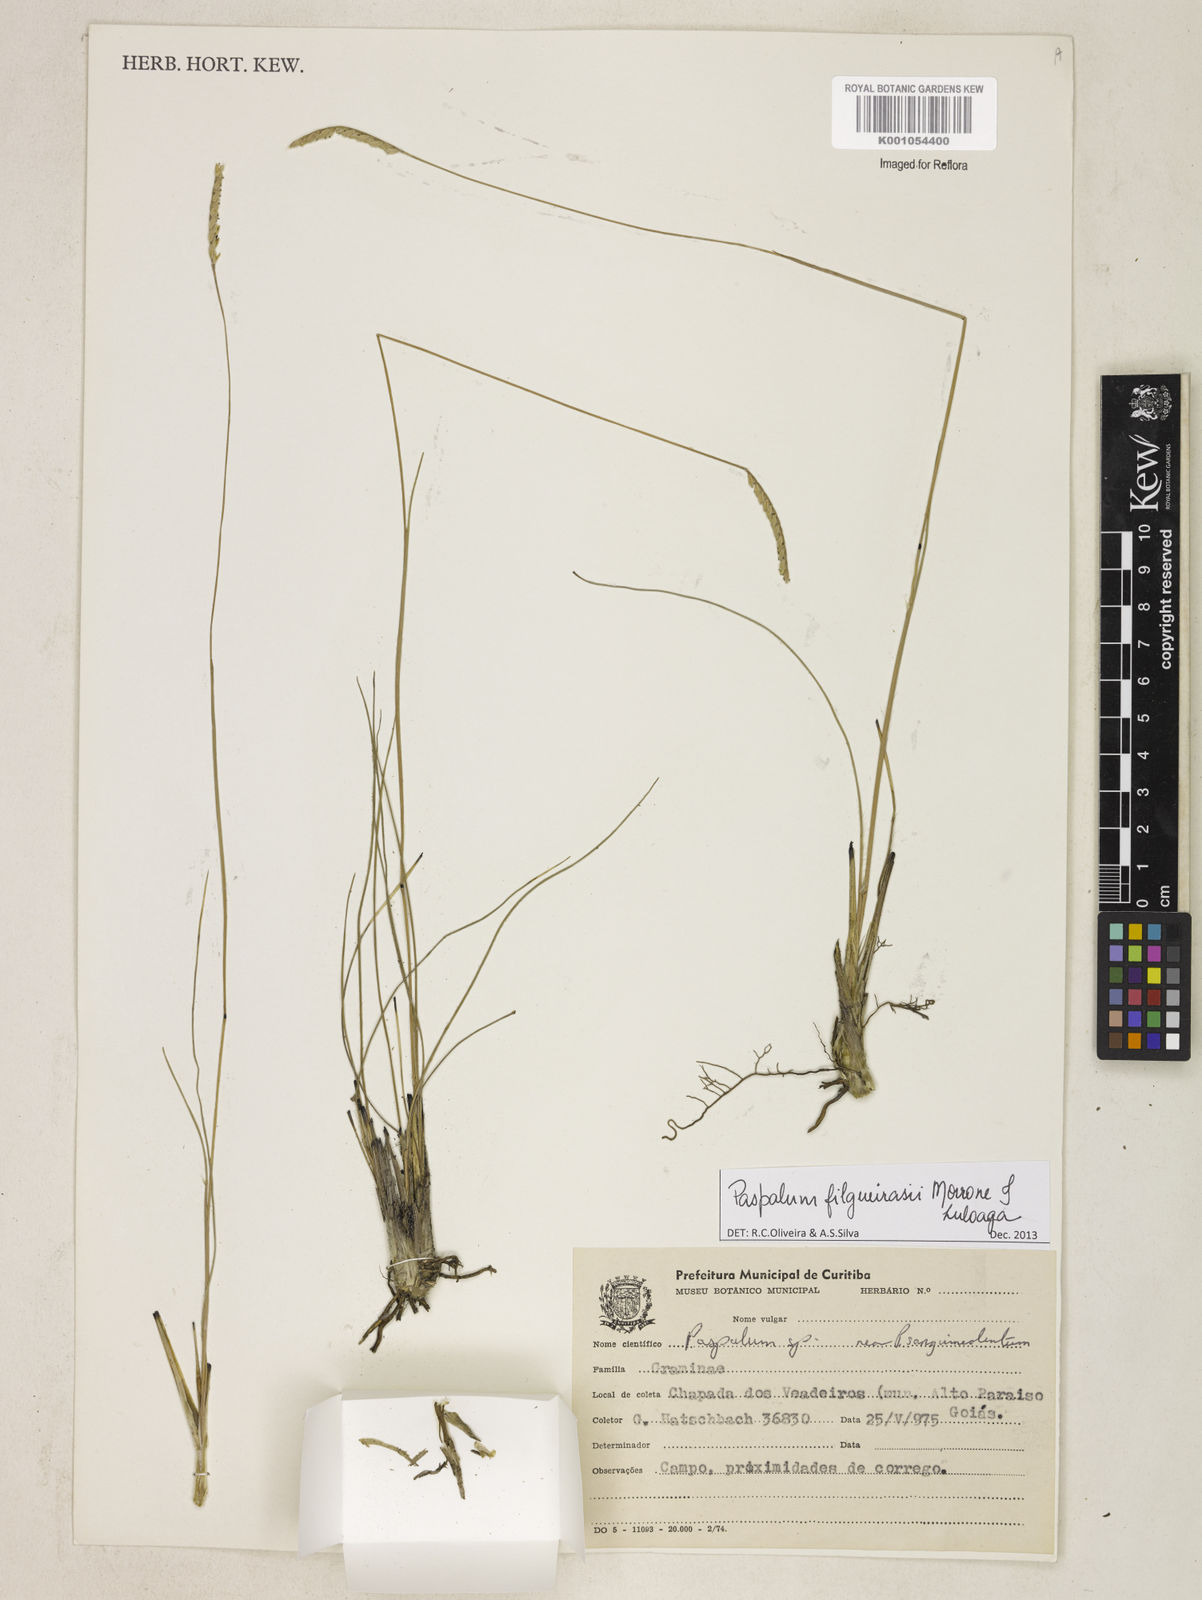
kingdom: Plantae
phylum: Tracheophyta
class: Liliopsida
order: Poales
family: Poaceae
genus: Paspalum
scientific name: Paspalum filgueirasii
